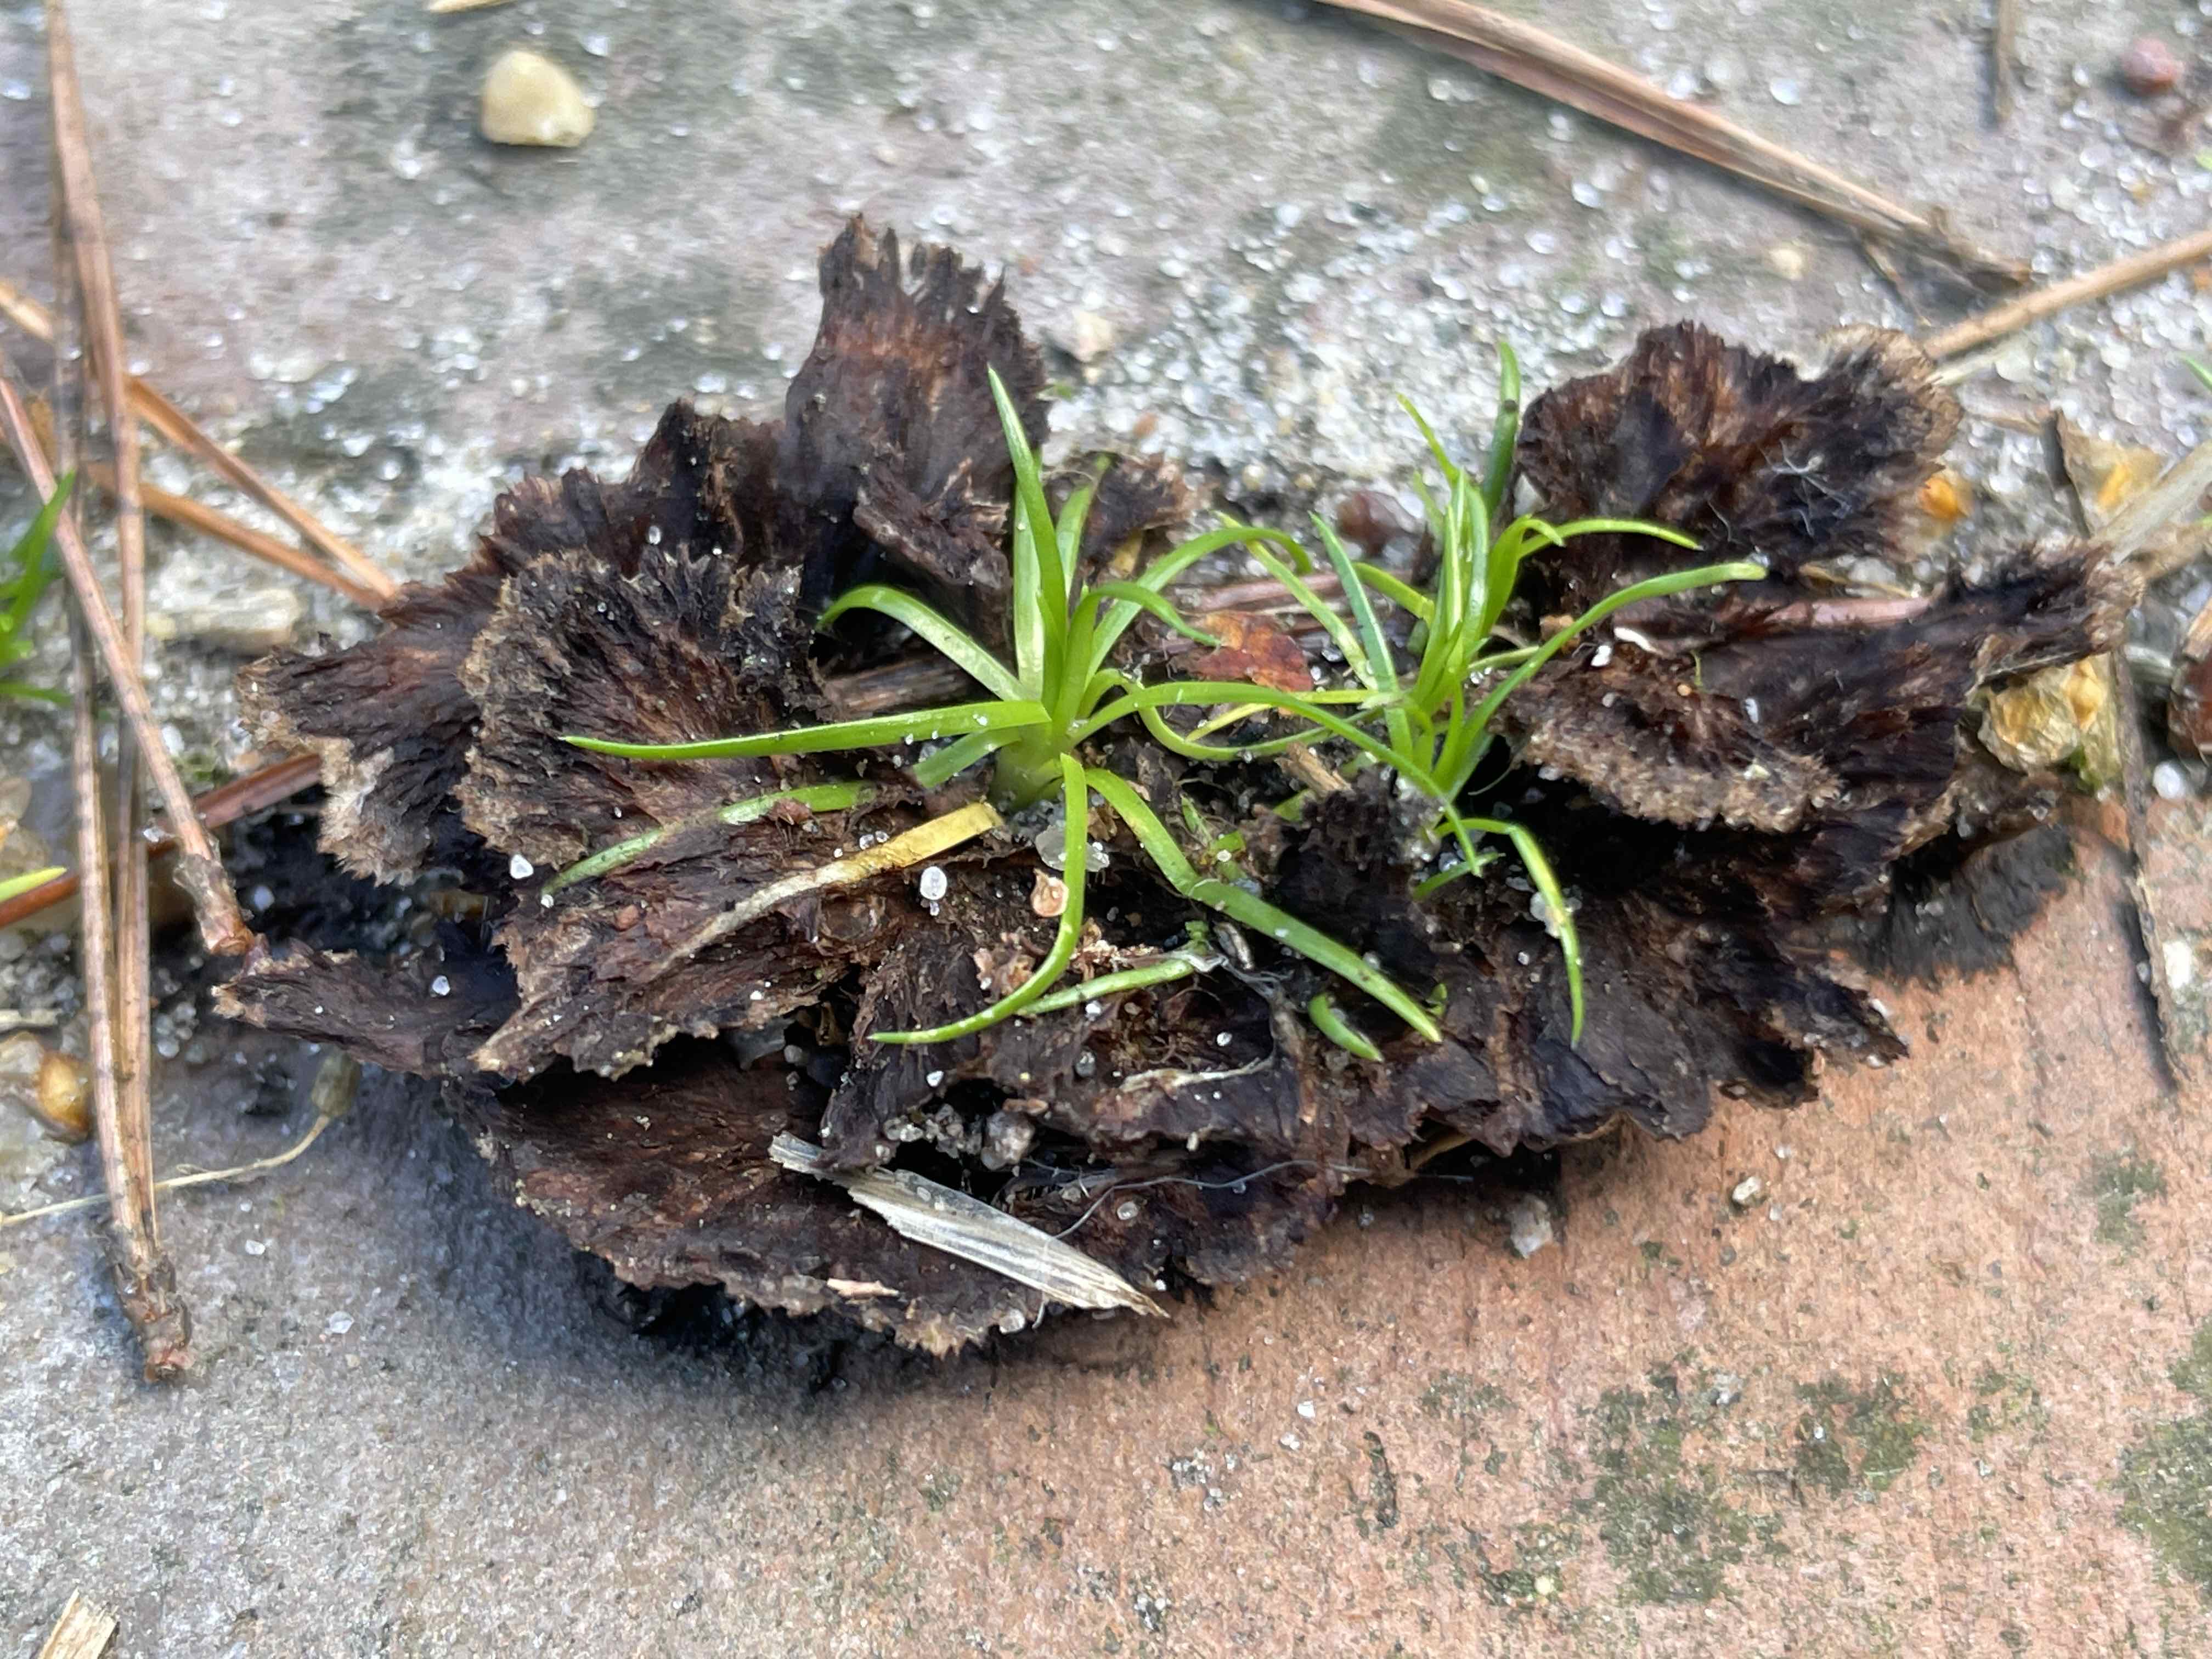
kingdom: Fungi
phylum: Basidiomycota
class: Agaricomycetes
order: Thelephorales
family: Thelephoraceae
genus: Thelephora
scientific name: Thelephora terrestris
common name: fliget frynsesvamp
